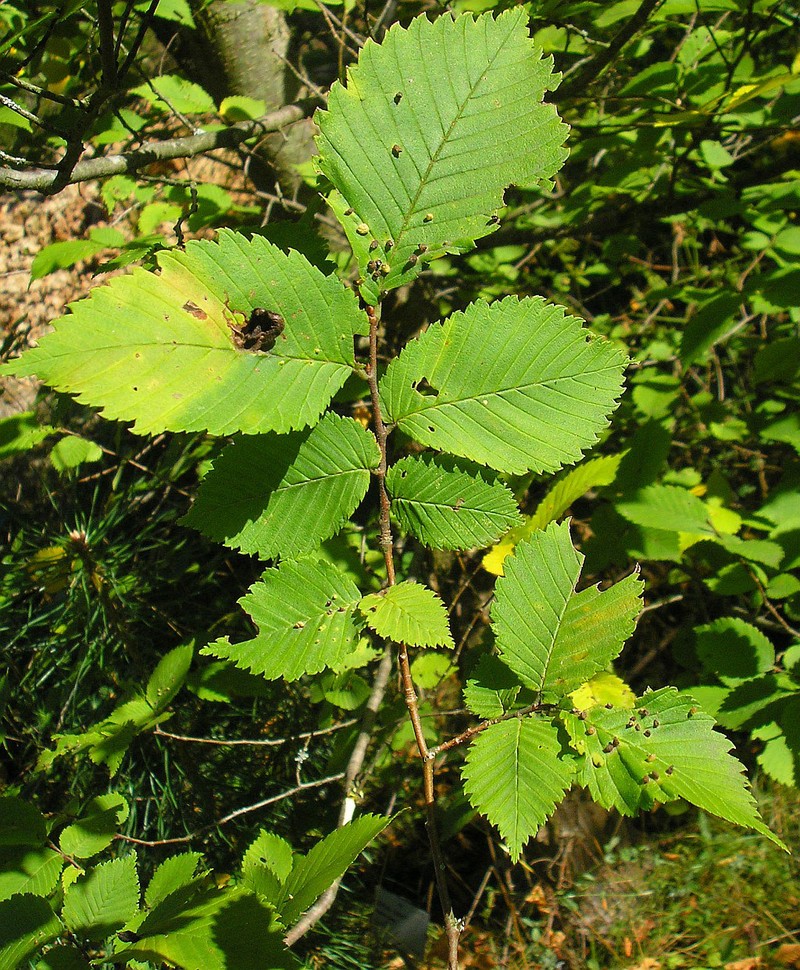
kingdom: Animalia
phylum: Arthropoda
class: Arachnida
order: Trombidiformes
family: Eriophyidae
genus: Aceria
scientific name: Aceria brevipunctata
